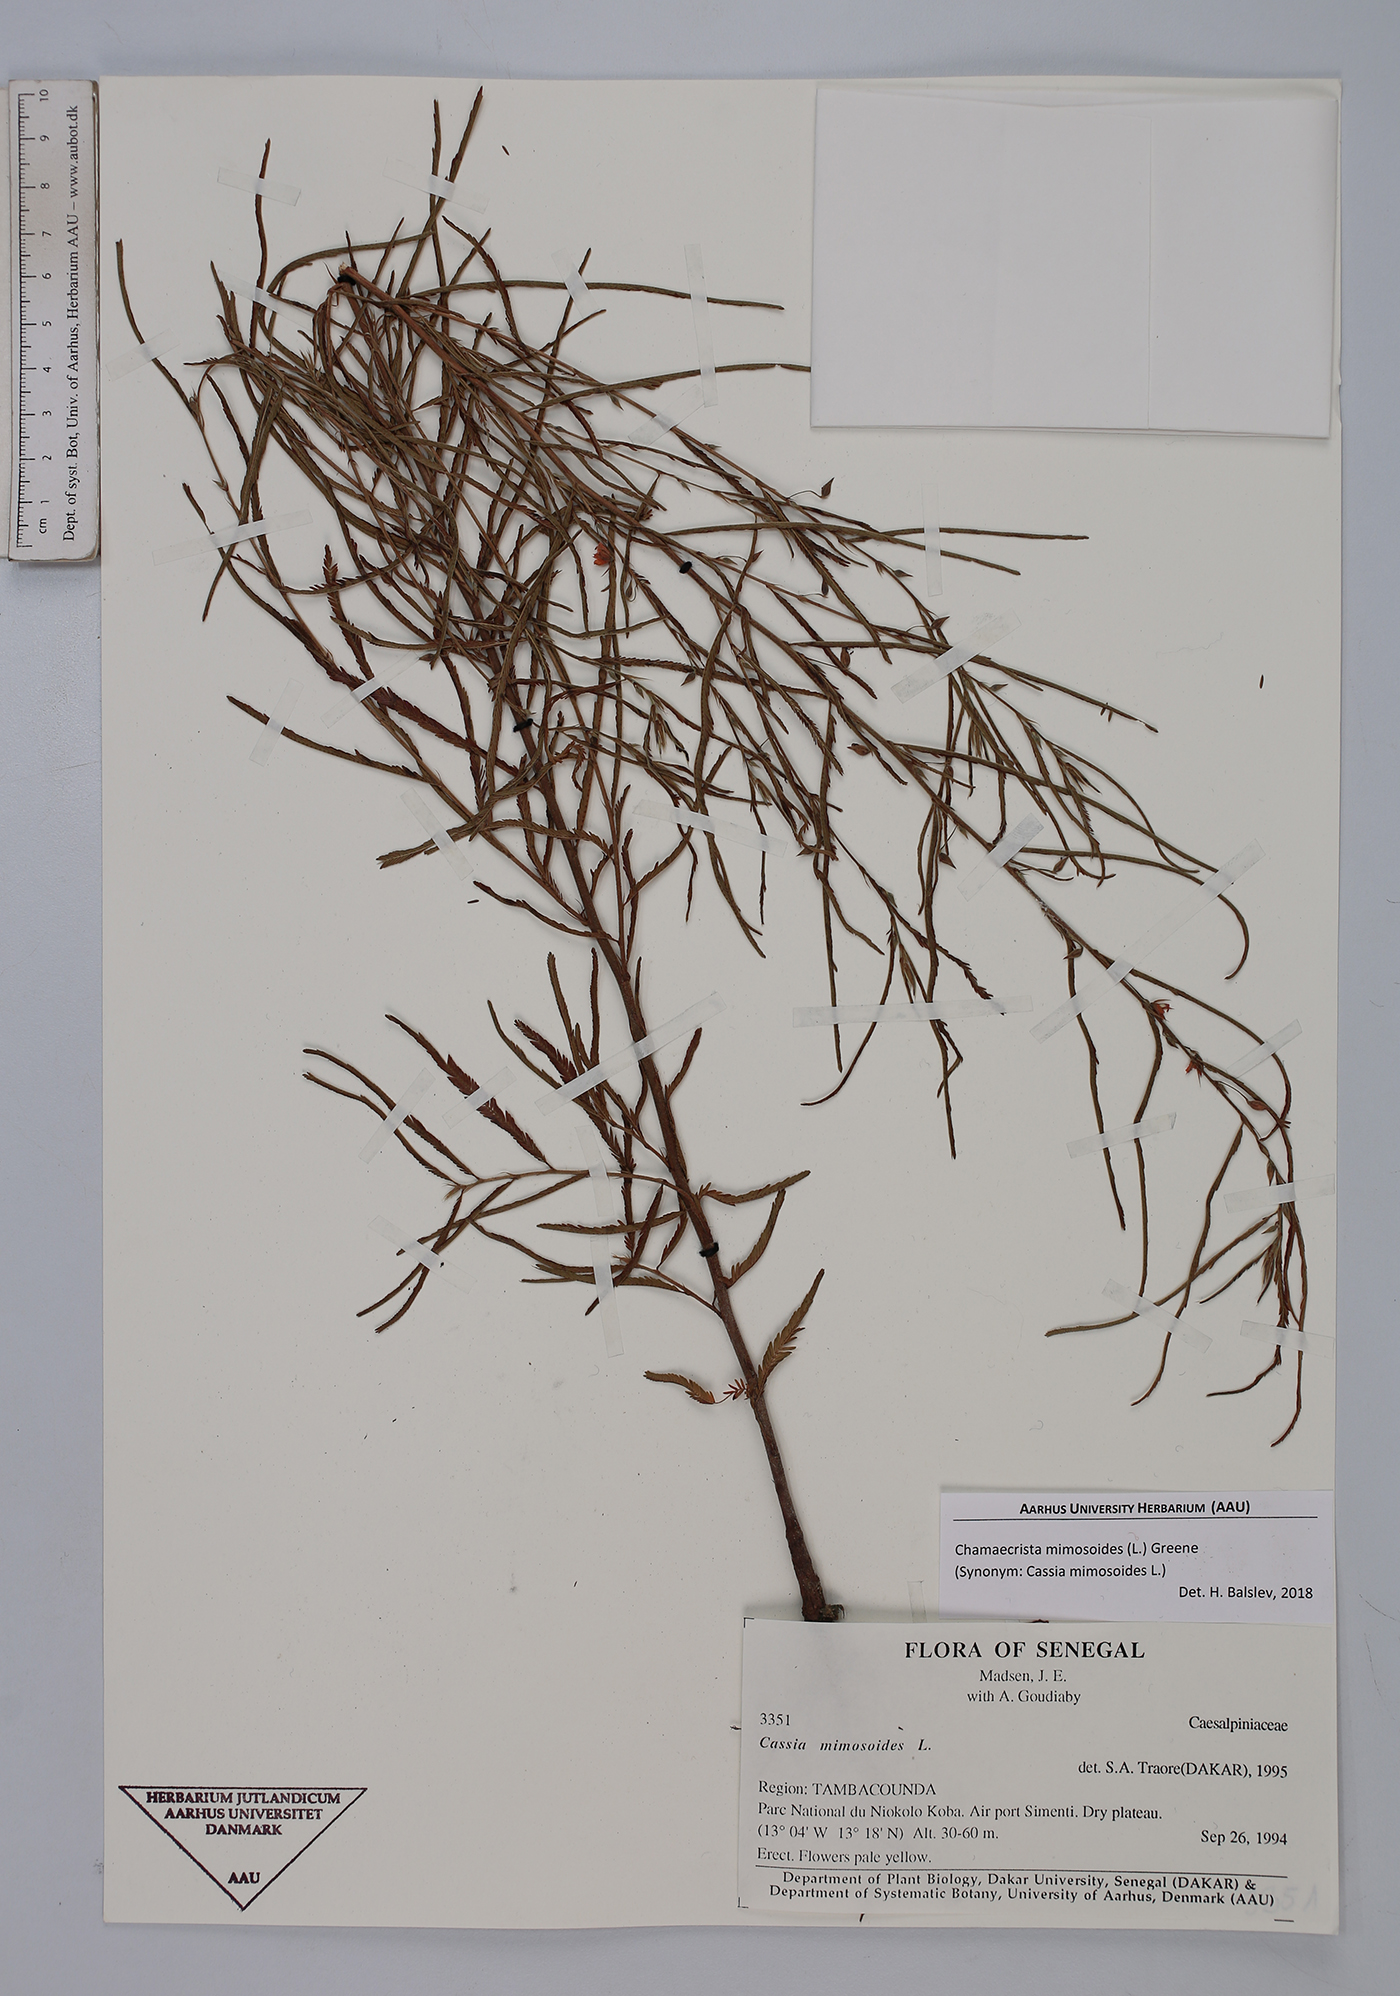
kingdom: Plantae
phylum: Tracheophyta
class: Magnoliopsida
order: Fabales
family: Fabaceae
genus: Chamaecrista
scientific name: Chamaecrista mimosoides
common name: Fish-bone cassia
